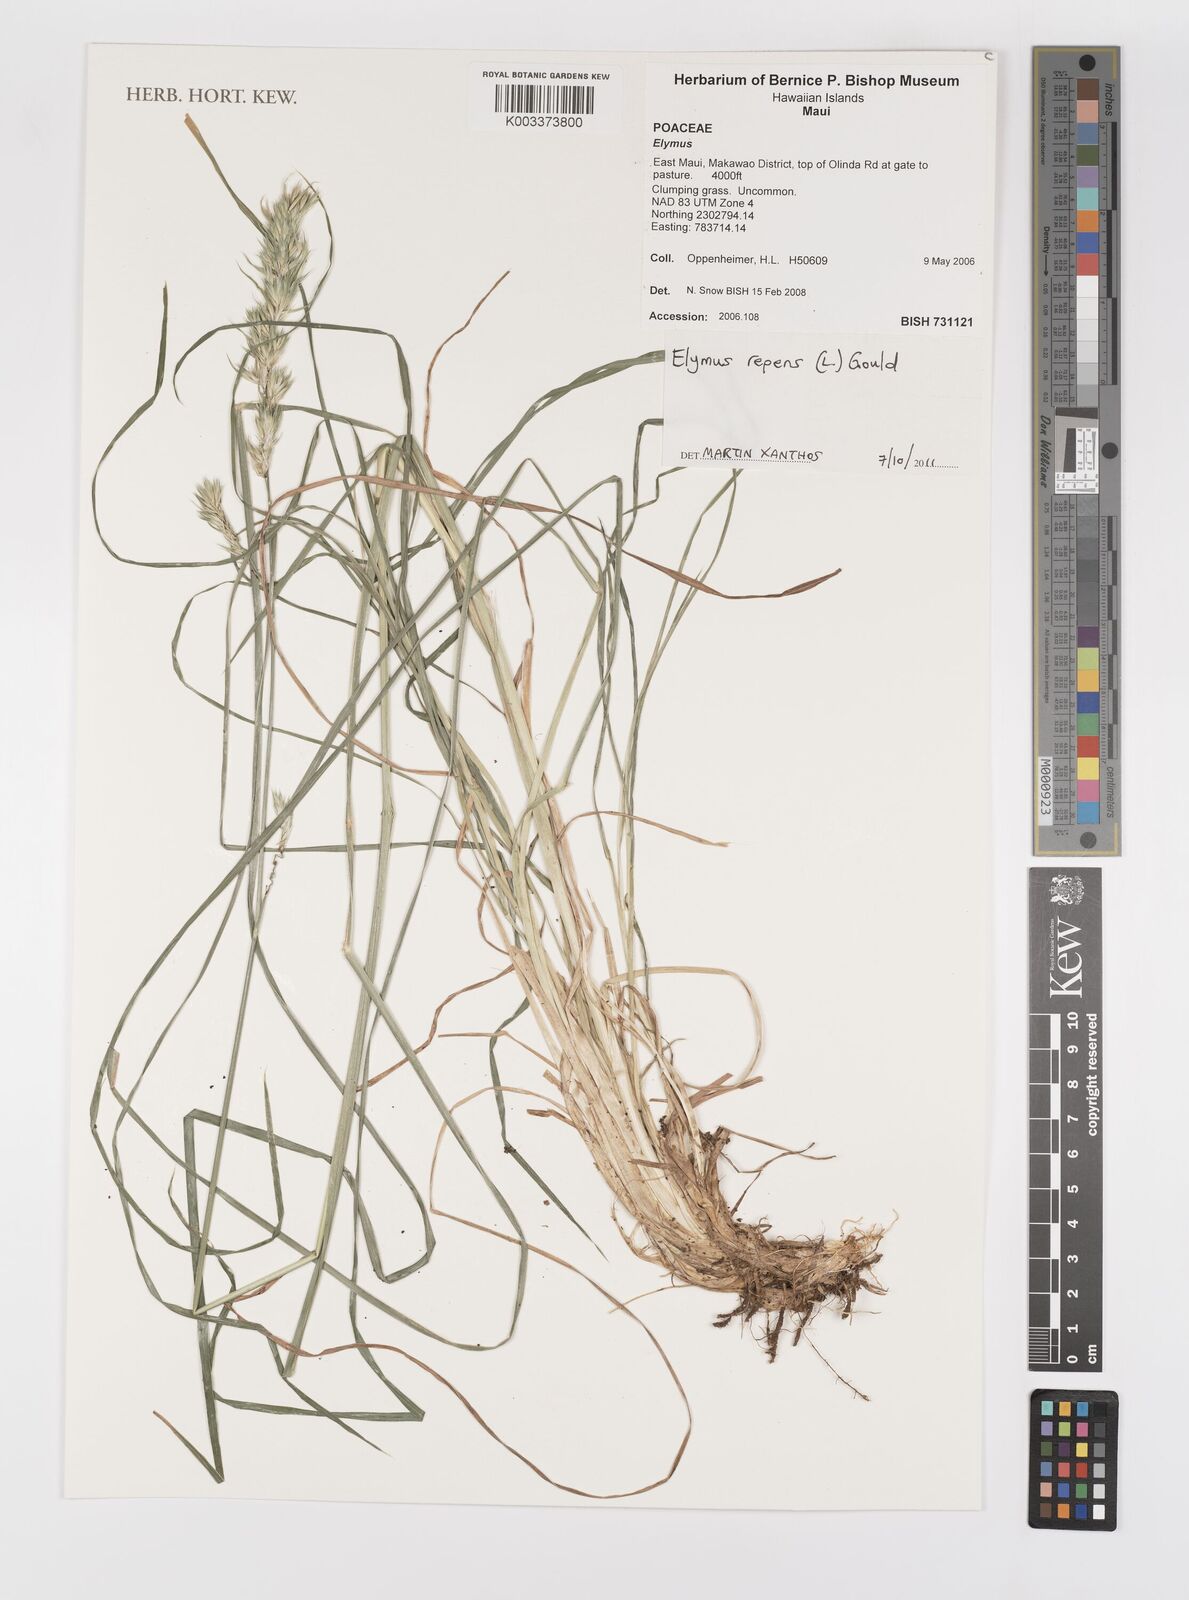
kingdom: Plantae
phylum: Tracheophyta
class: Liliopsida
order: Poales
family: Poaceae
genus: Elymus
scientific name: Elymus repens
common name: Quackgrass
